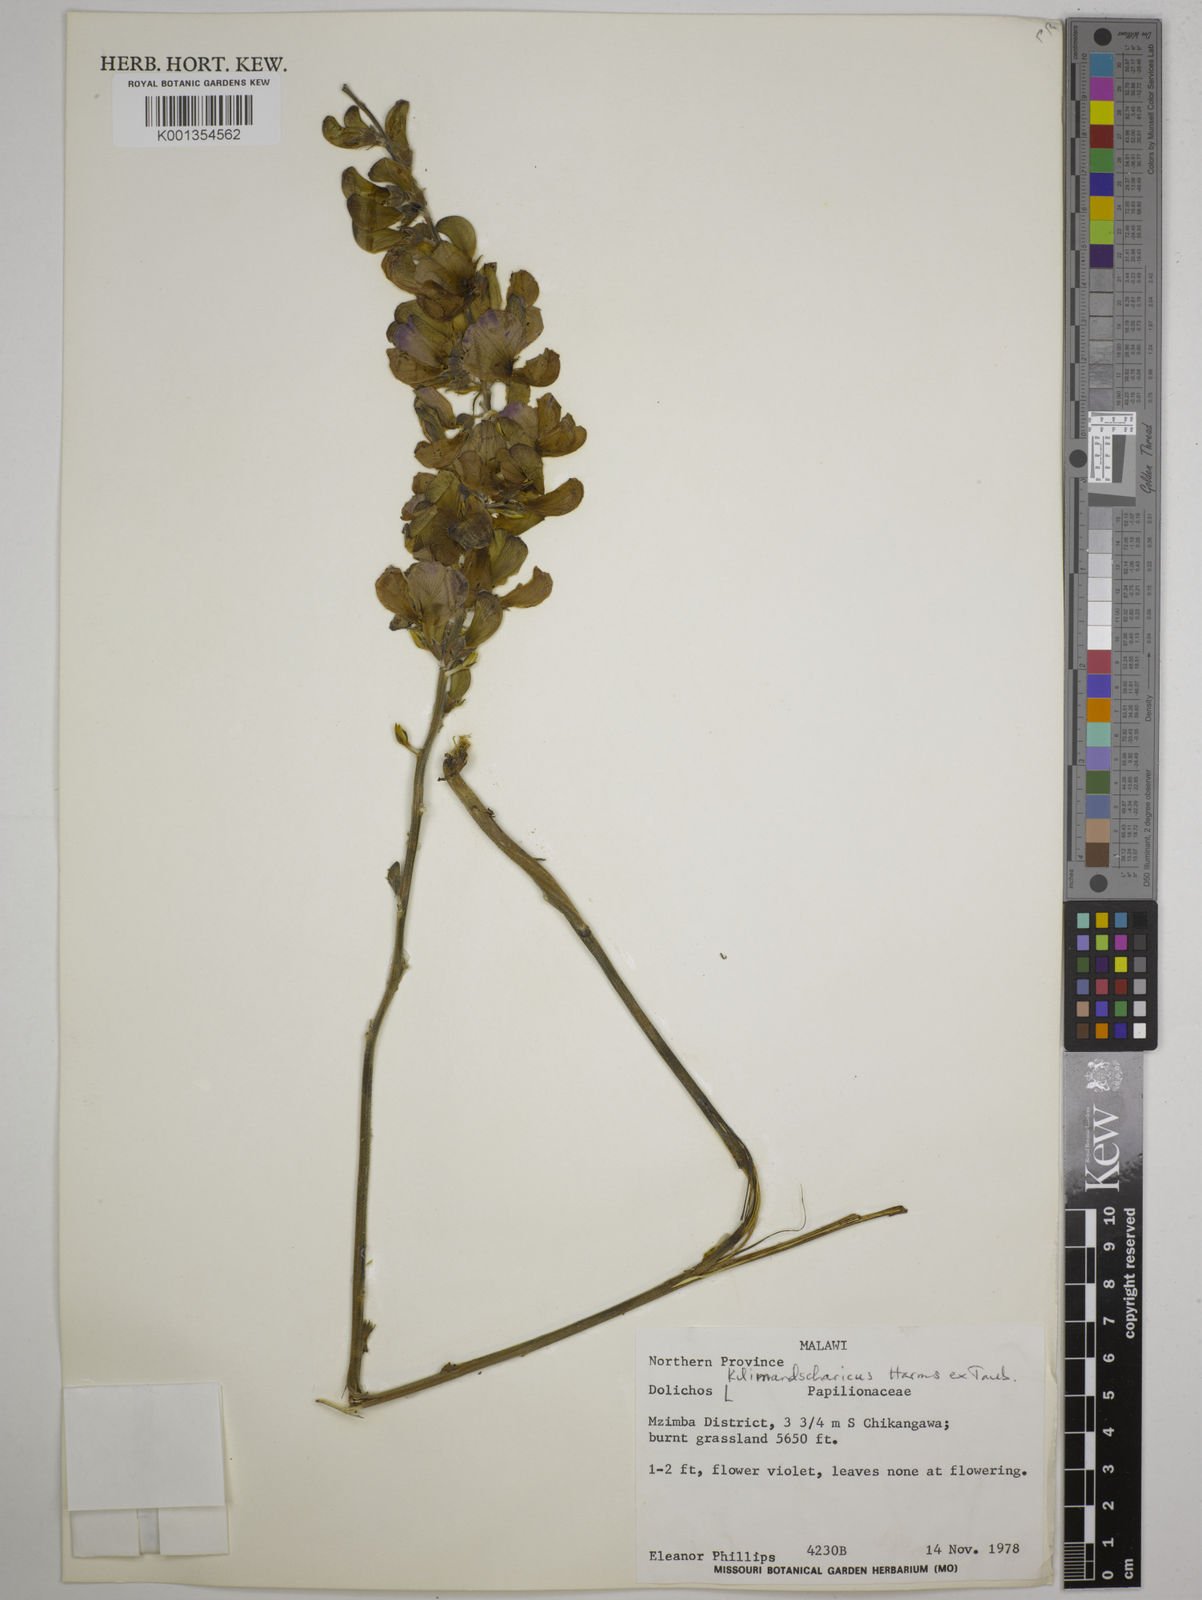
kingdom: Plantae
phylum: Tracheophyta
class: Magnoliopsida
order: Fabales
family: Fabaceae
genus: Dolichos
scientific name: Dolichos kilimandscharicus
